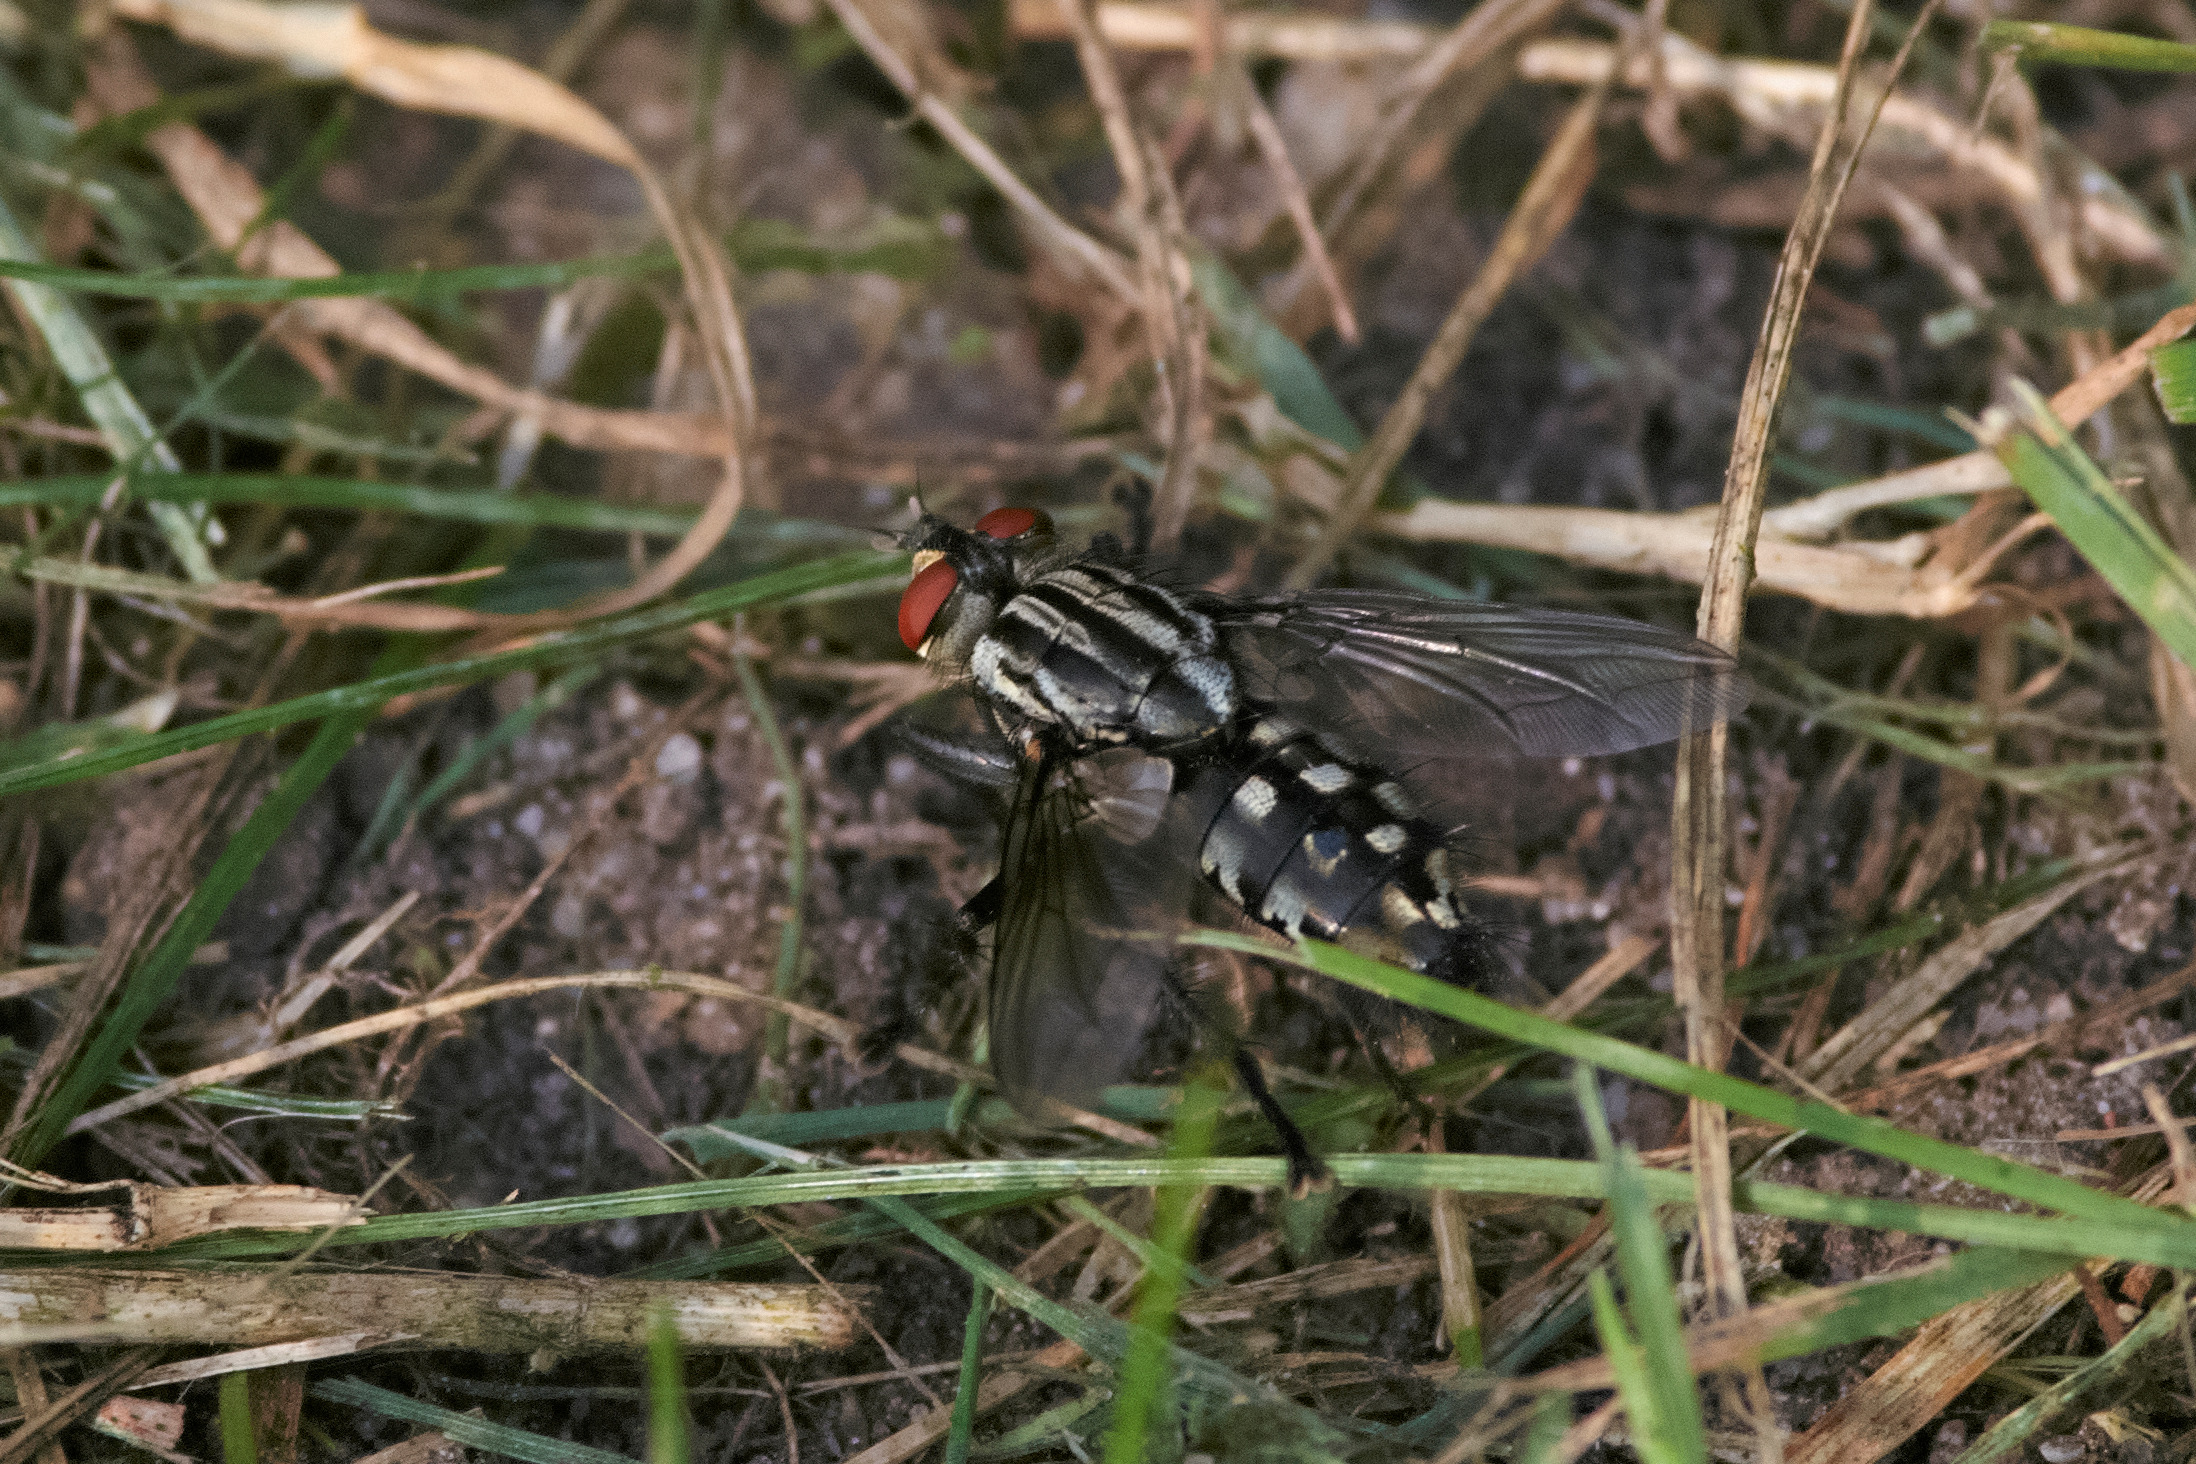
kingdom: Animalia
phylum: Arthropoda
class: Insecta
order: Diptera
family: Sarcophagidae
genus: Sarcophaga
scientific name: Sarcophaga
